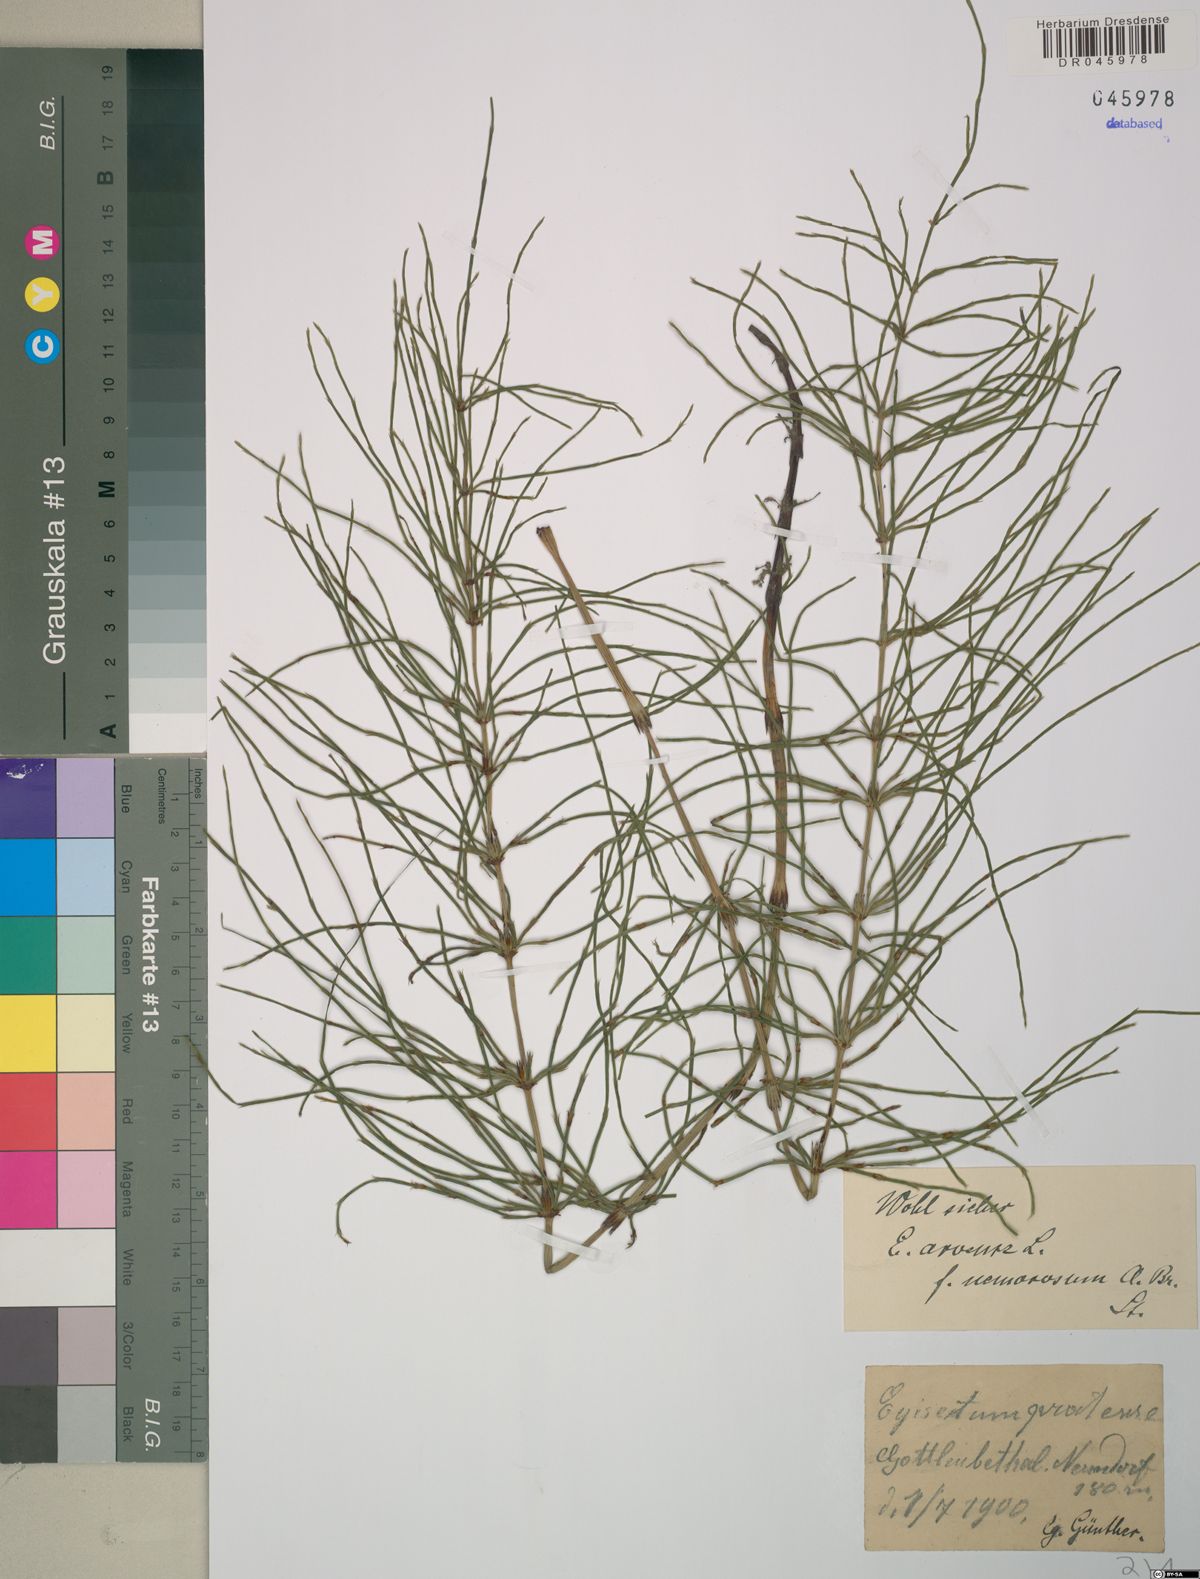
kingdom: Plantae
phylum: Tracheophyta
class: Polypodiopsida
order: Equisetales
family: Equisetaceae
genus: Equisetum
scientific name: Equisetum arvense
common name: Field horsetail
